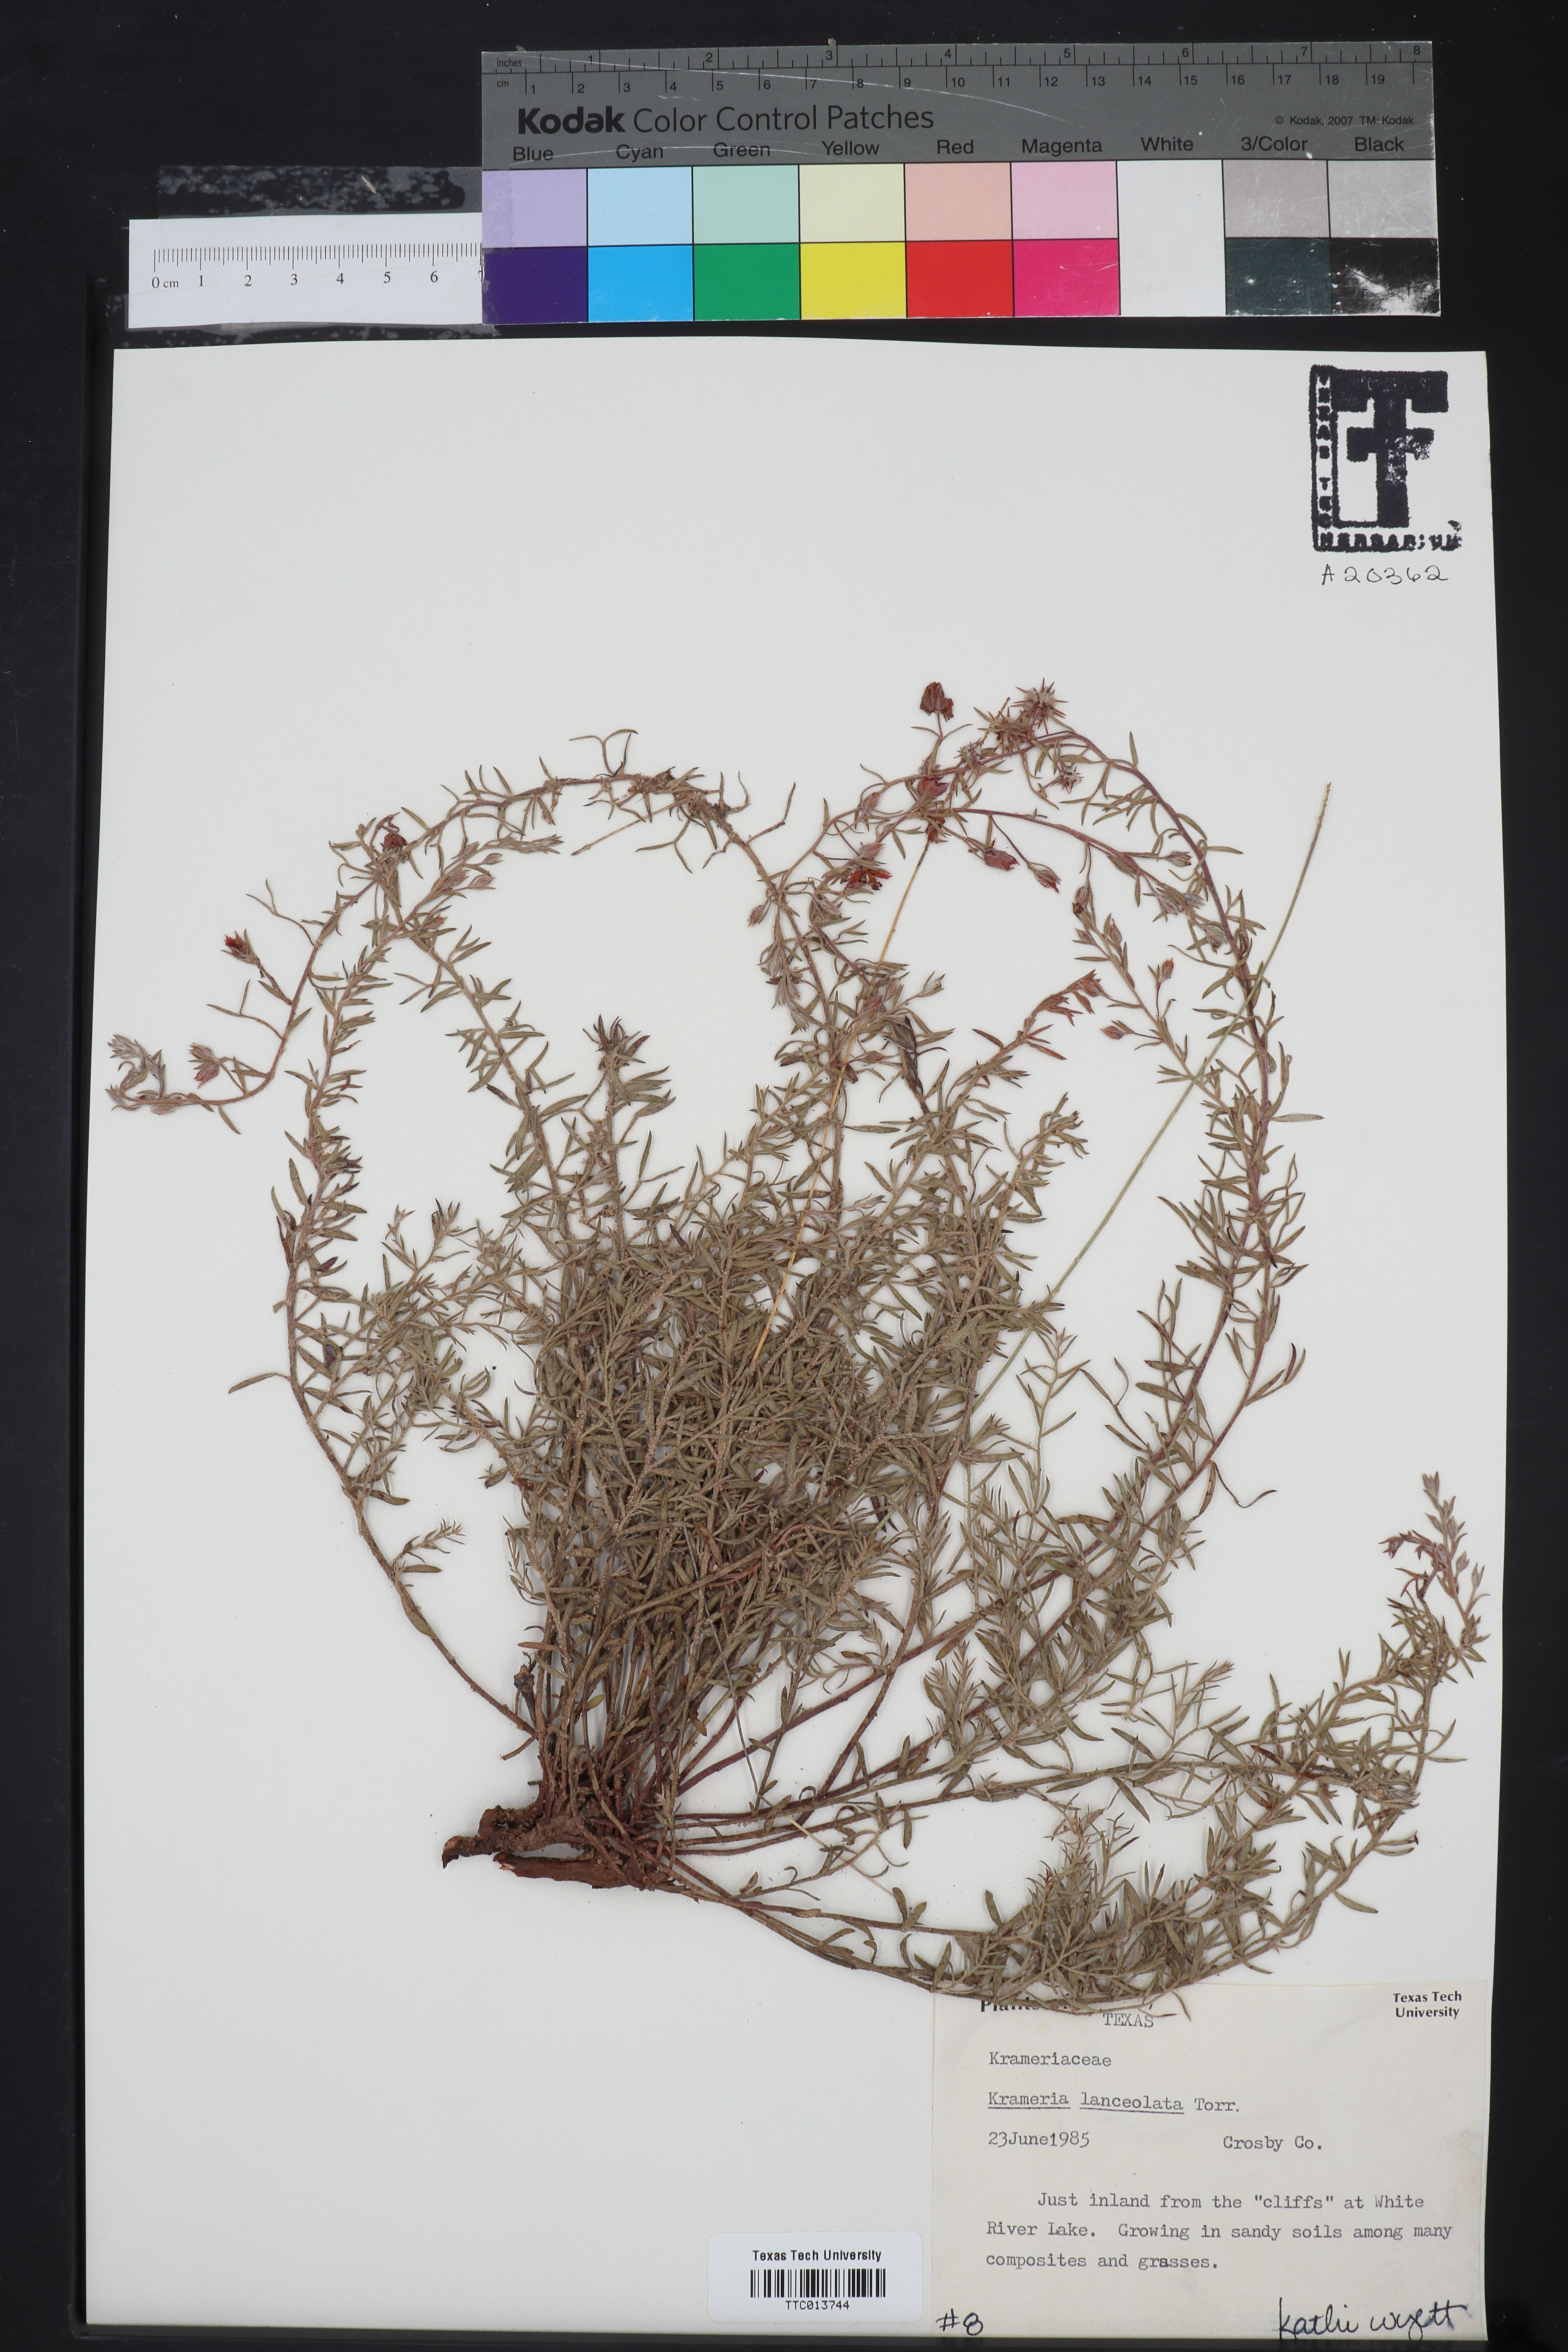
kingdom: Plantae
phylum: Tracheophyta
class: Magnoliopsida
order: Zygophyllales
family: Krameriaceae
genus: Krameria
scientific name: Krameria lanceolata
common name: Ratany
